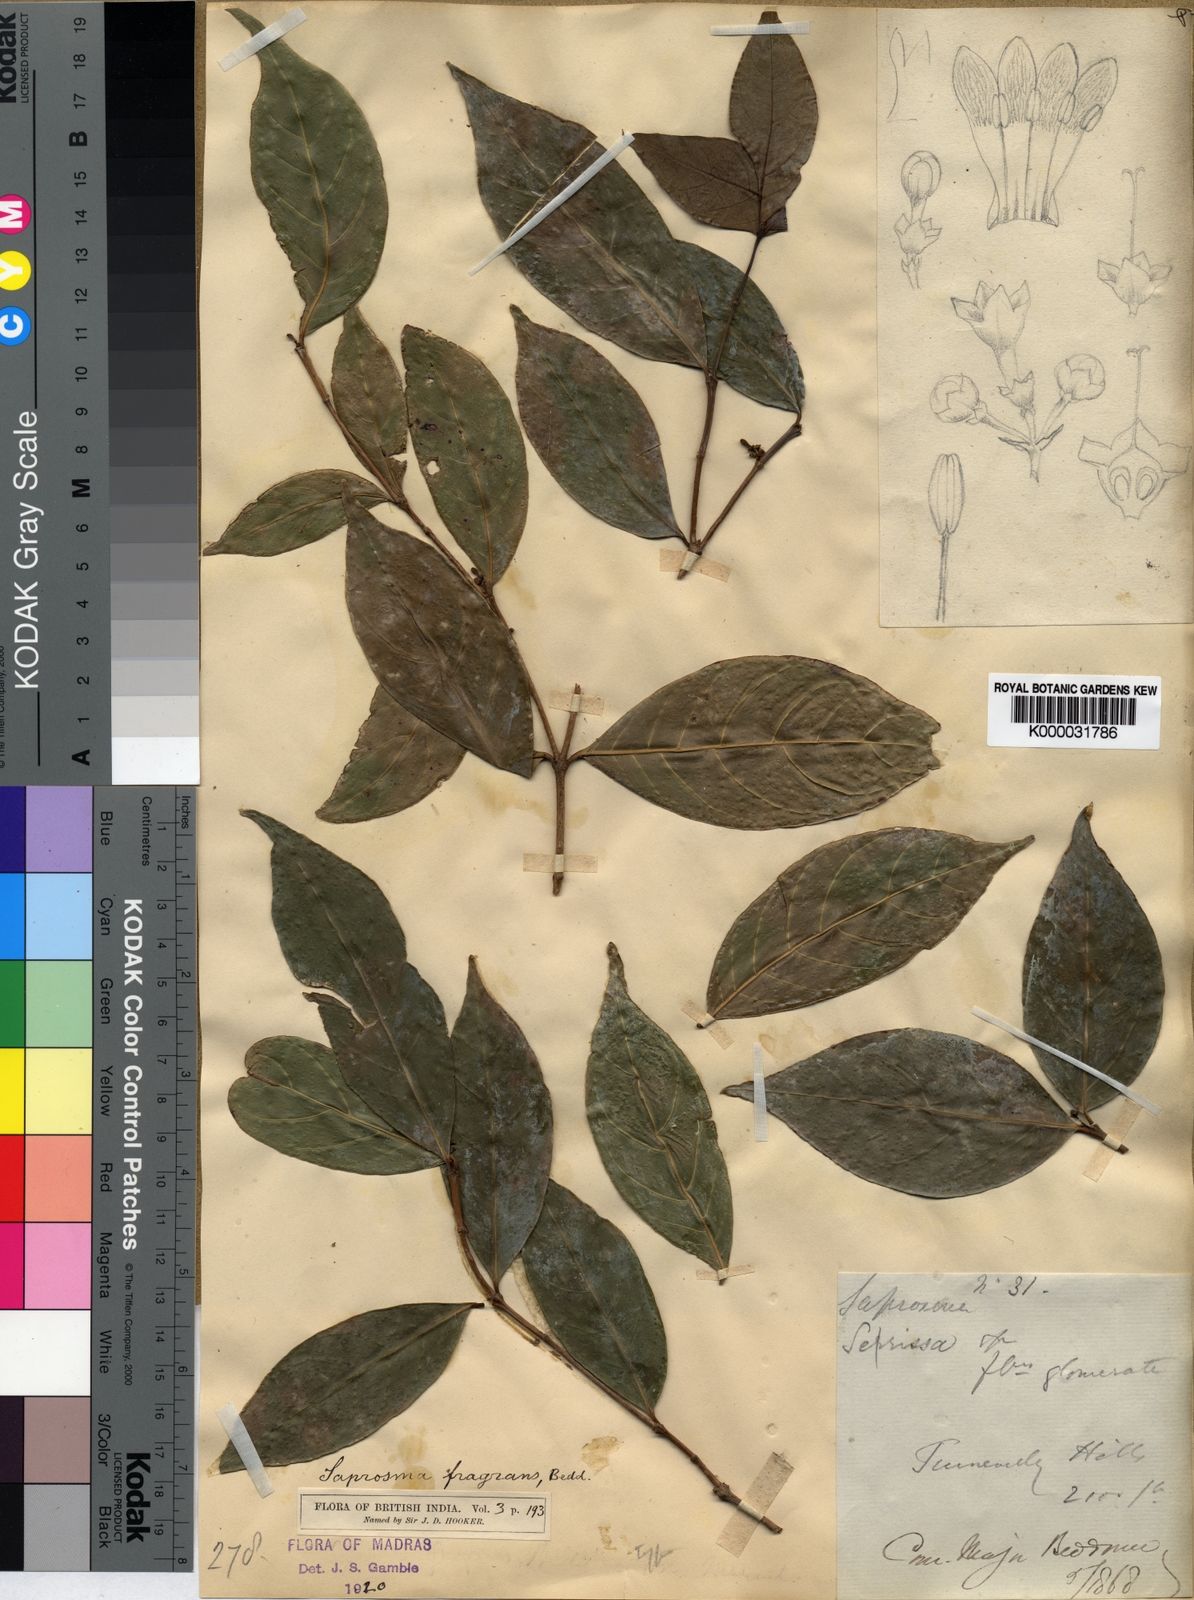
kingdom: Plantae
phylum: Tracheophyta
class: Magnoliopsida
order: Gentianales
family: Rubiaceae
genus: Saprosma
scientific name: Saprosma fragrans
